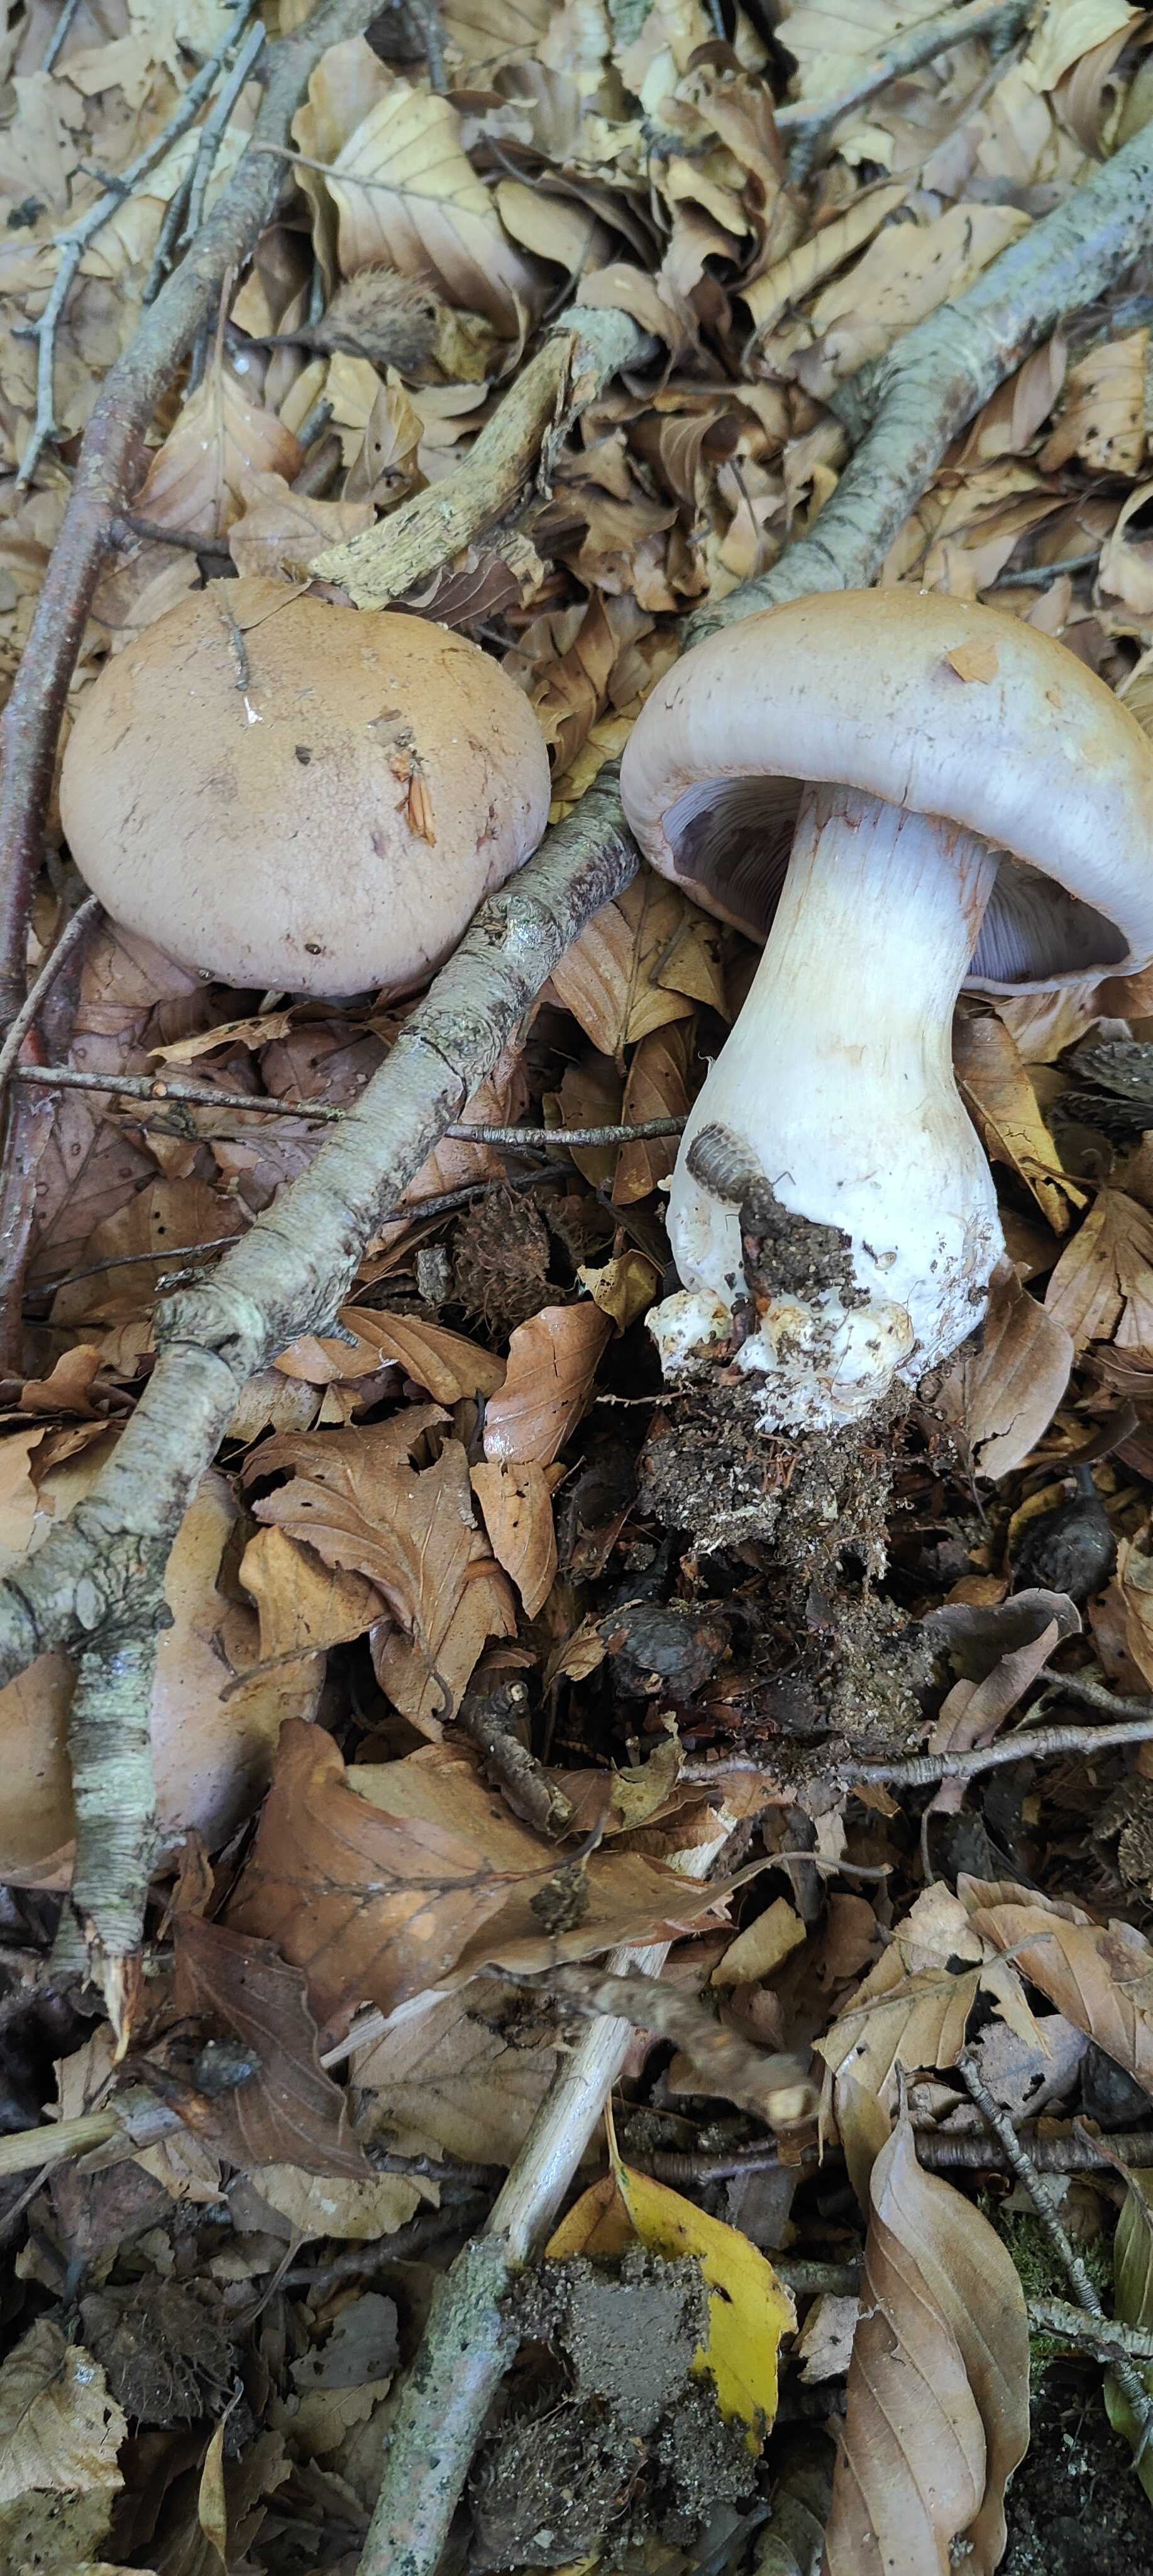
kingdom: Fungi
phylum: Basidiomycota
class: Agaricomycetes
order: Agaricales
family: Cortinariaceae
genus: Cortinarius
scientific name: Cortinarius largus
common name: violetrandet slørhat
